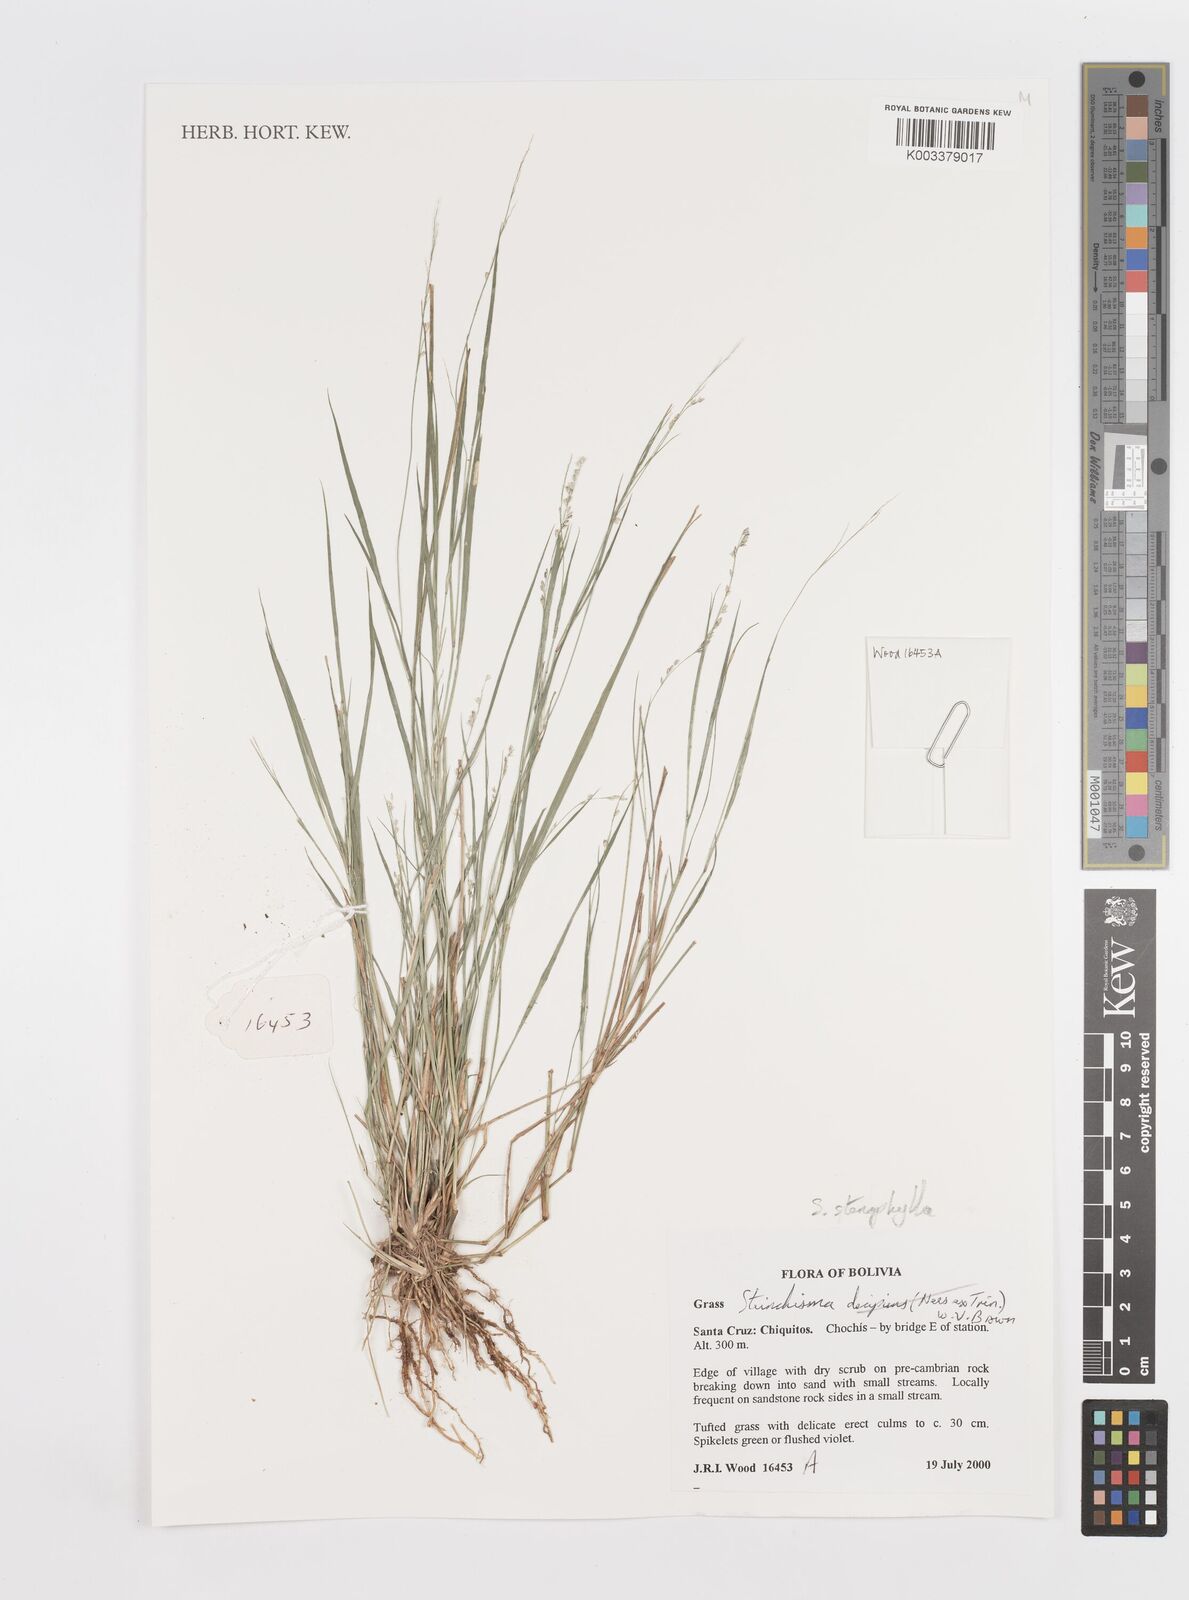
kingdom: Plantae
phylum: Tracheophyta
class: Liliopsida
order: Poales
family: Poaceae
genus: Steinchisma
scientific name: Steinchisma stenophyllum
